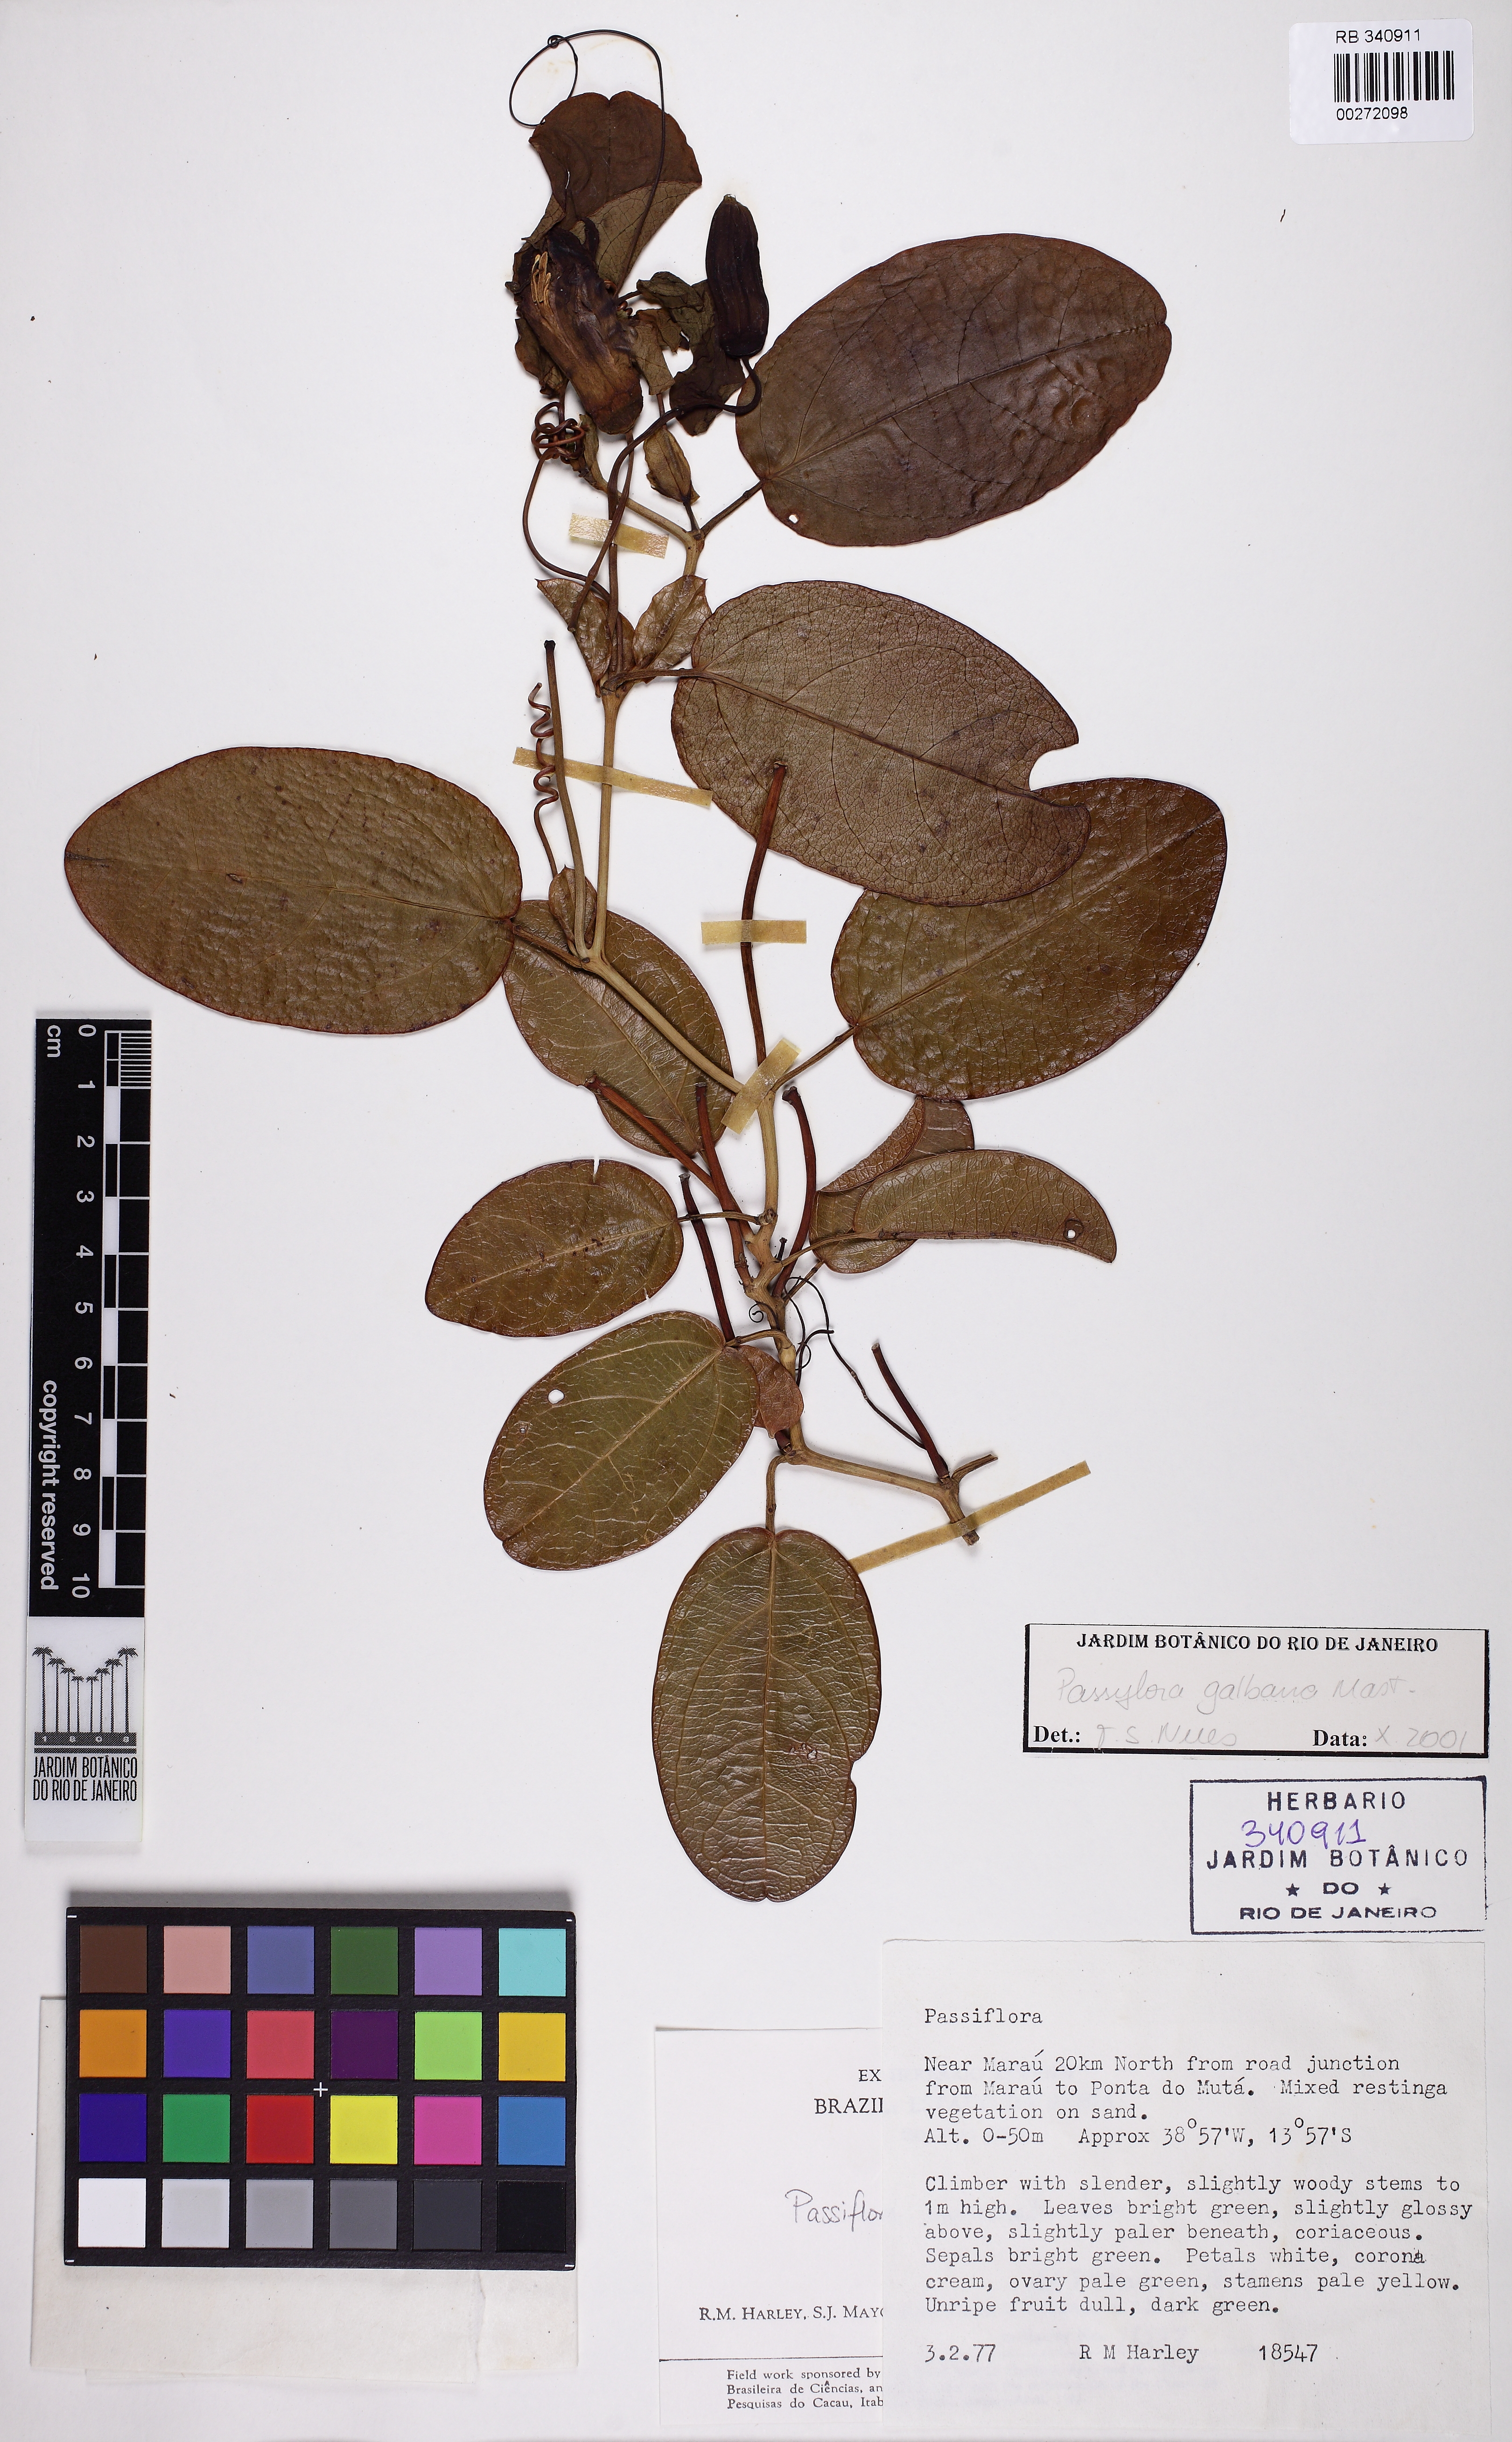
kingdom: Plantae
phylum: Tracheophyta
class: Magnoliopsida
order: Malpighiales
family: Passifloraceae
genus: Passiflora
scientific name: Passiflora silvestris
